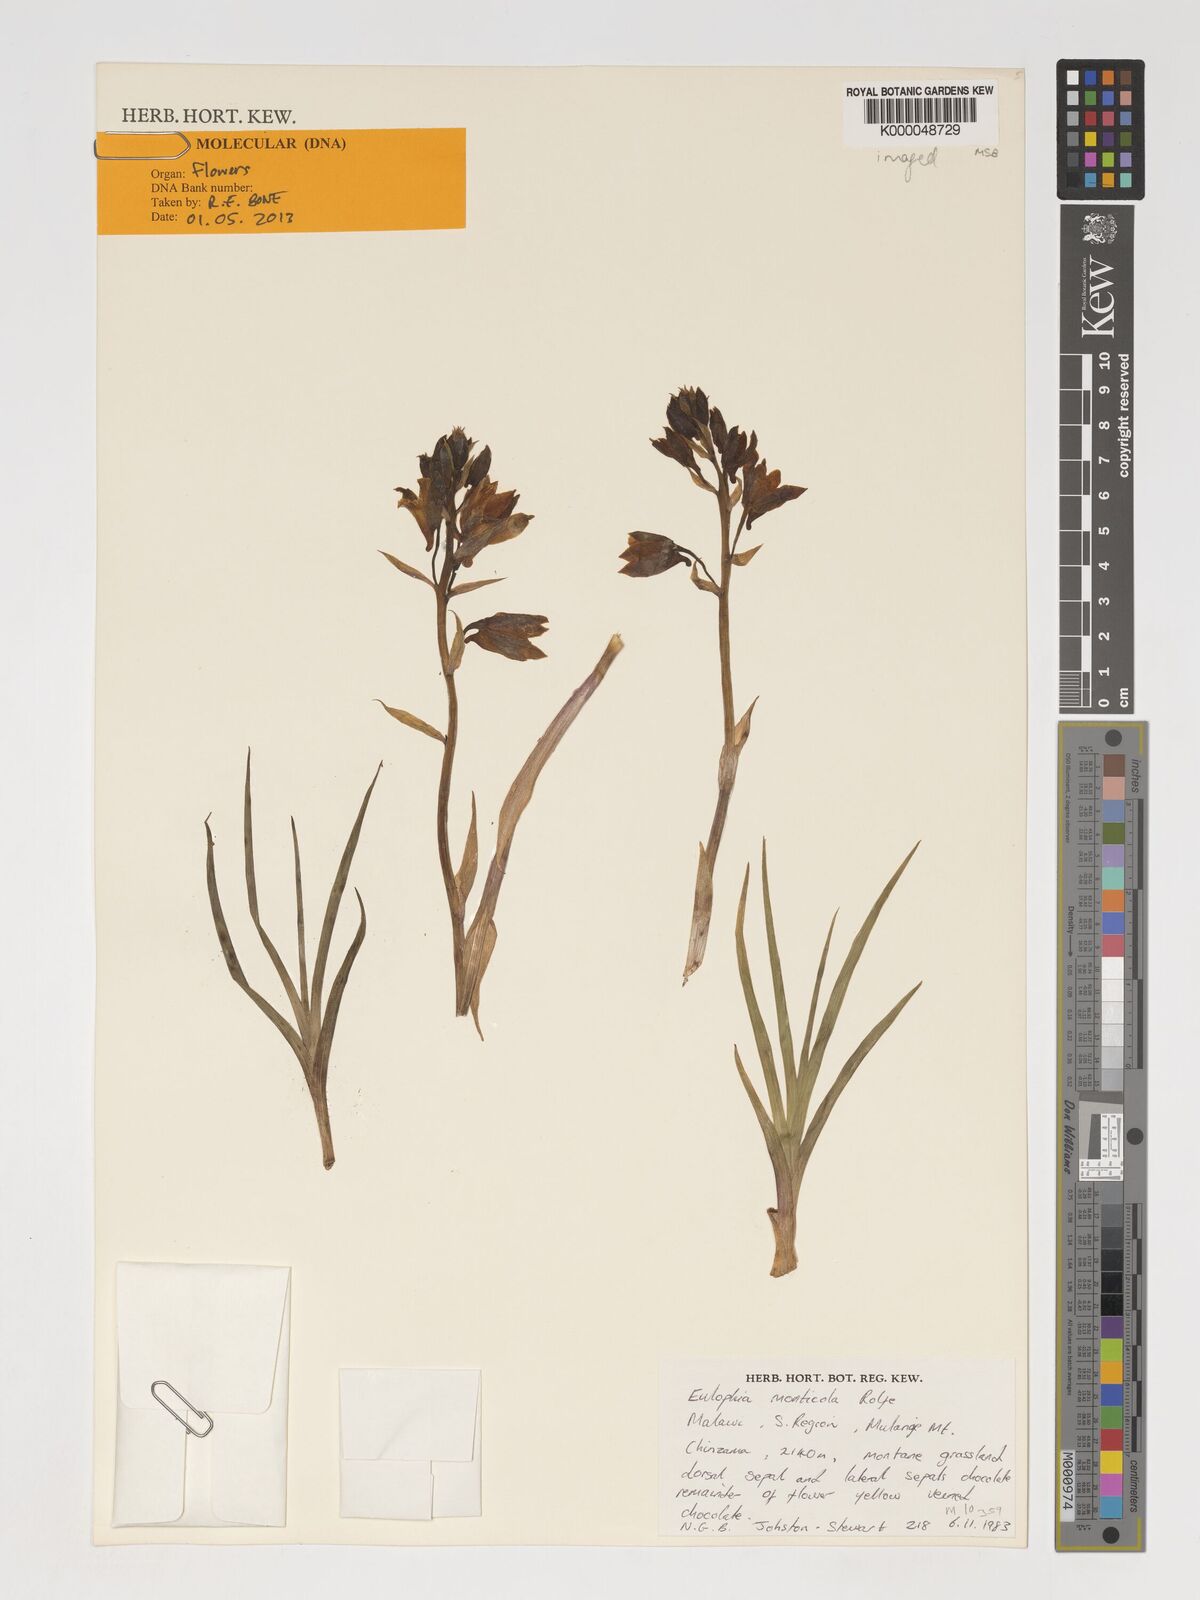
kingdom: Plantae
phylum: Tracheophyta
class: Liliopsida
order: Asparagales
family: Orchidaceae
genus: Eulophia
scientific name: Eulophia monticola
